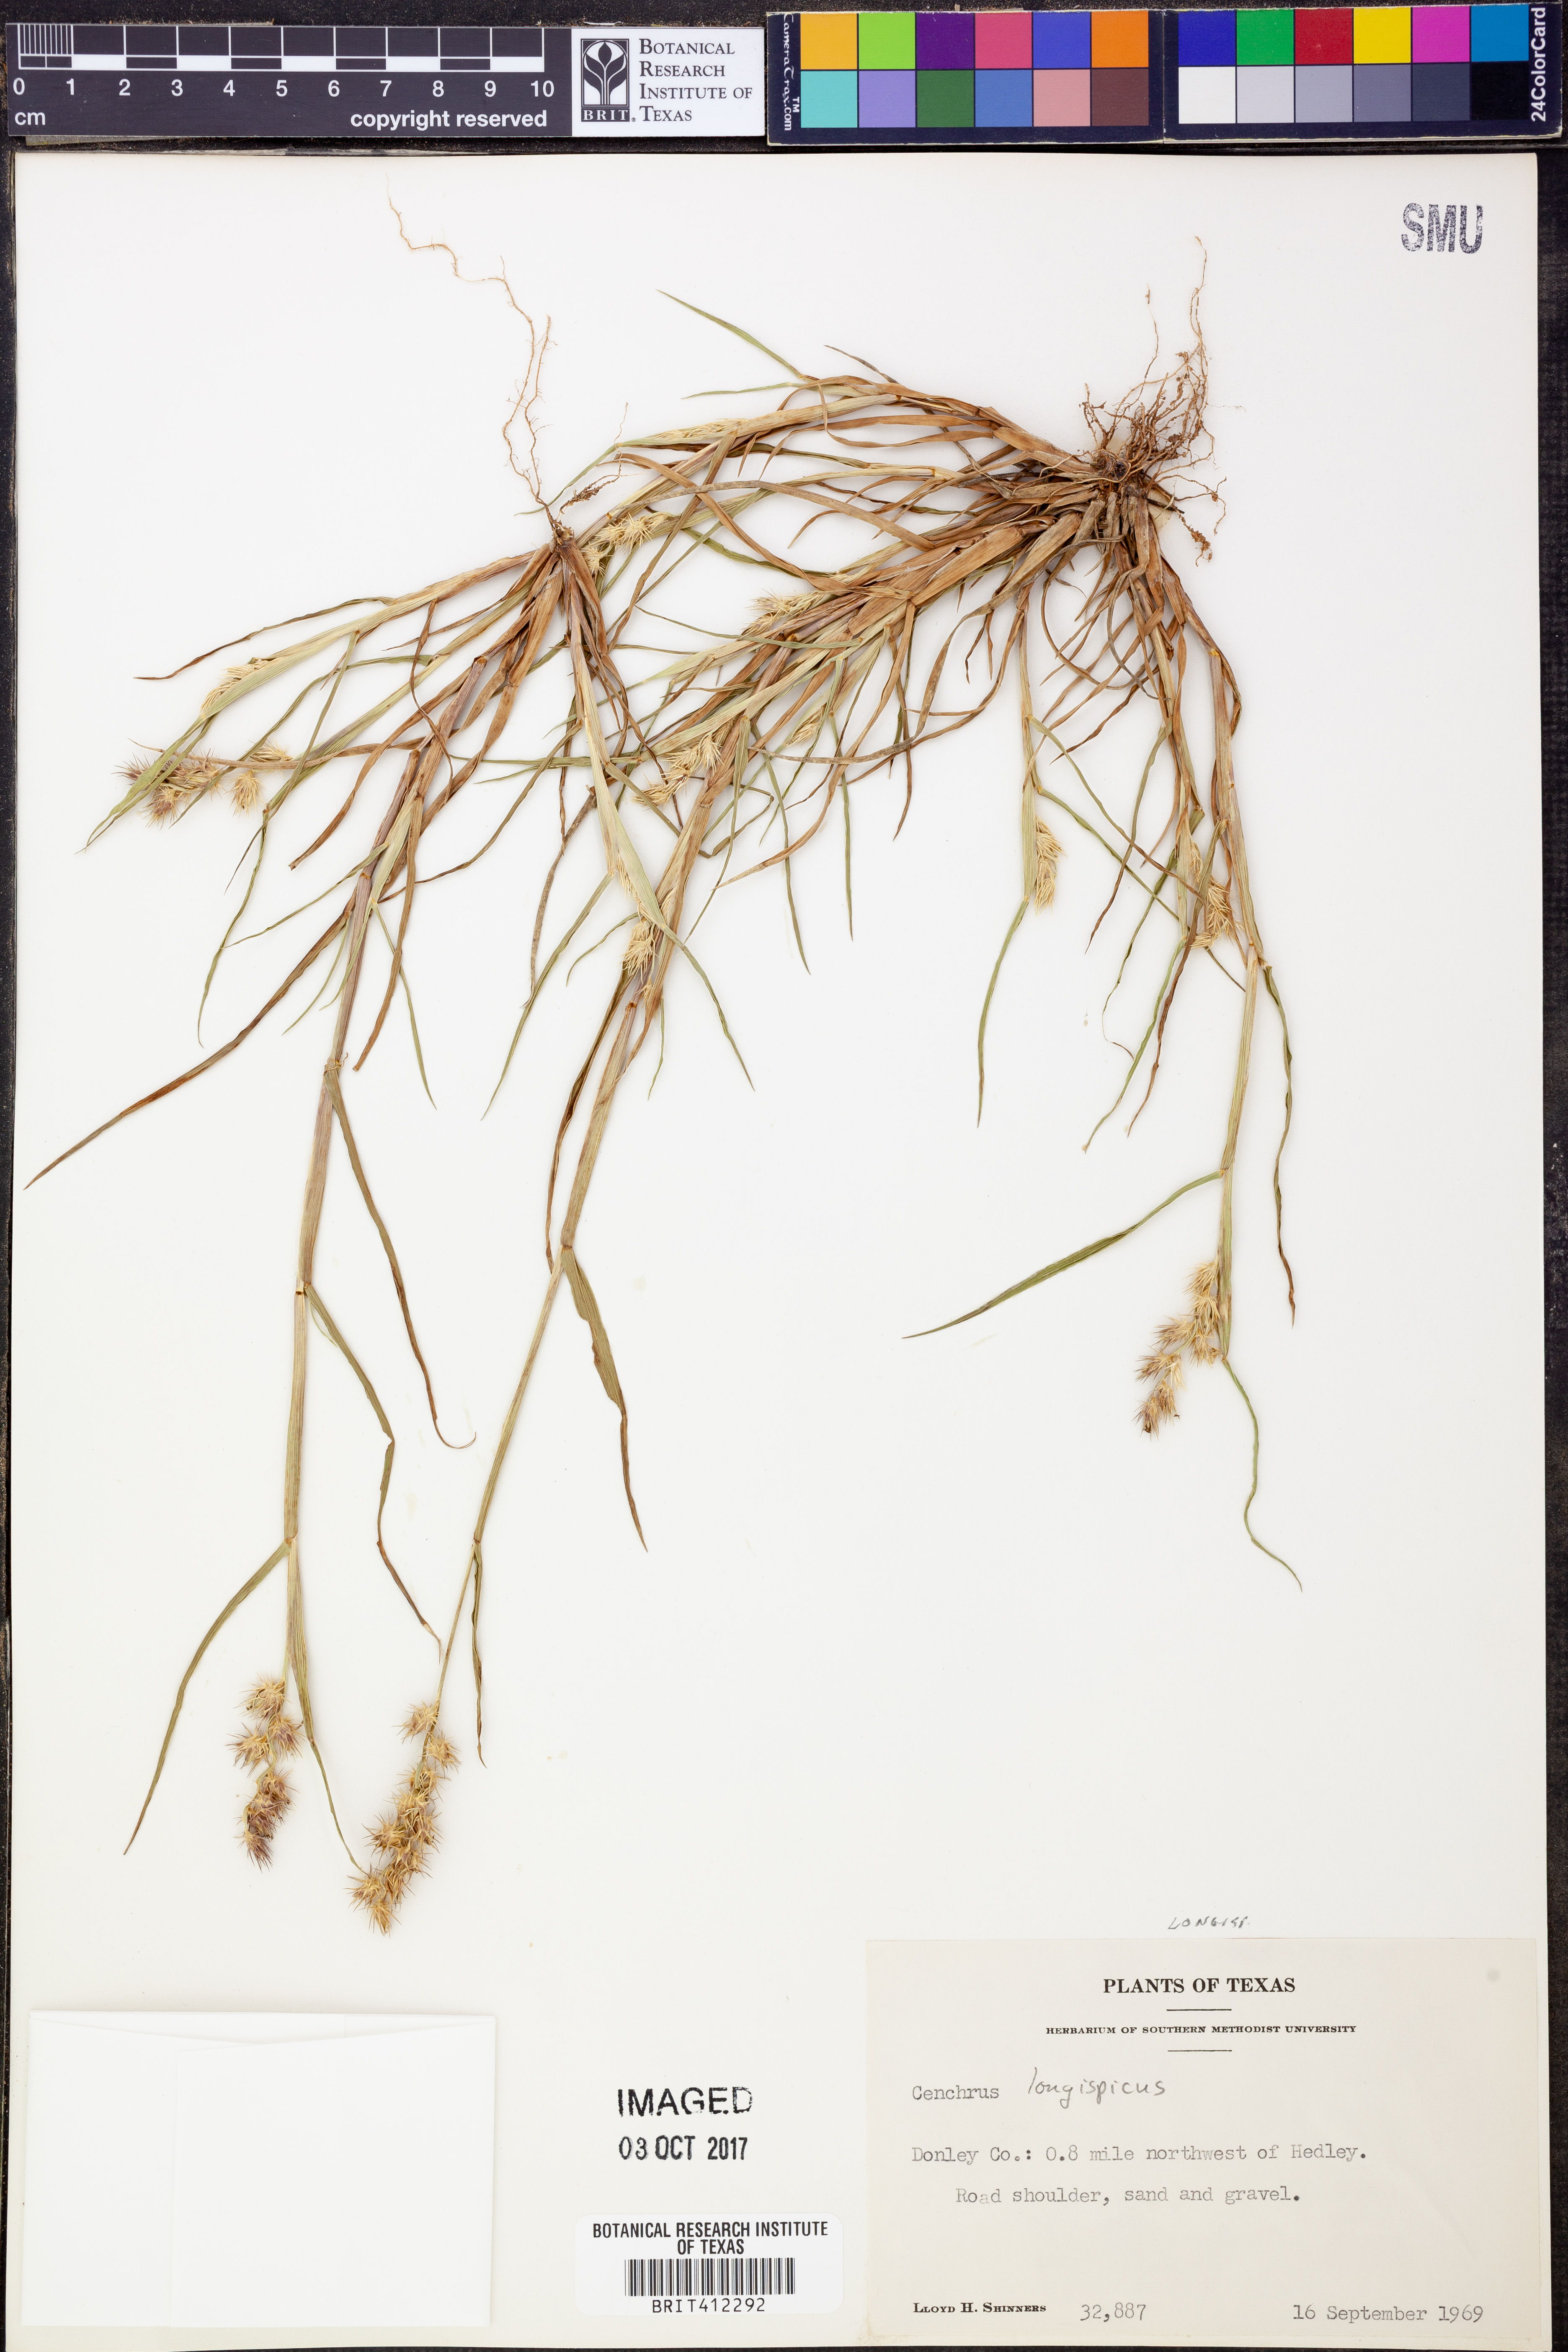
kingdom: Plantae
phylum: Tracheophyta
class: Liliopsida
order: Poales
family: Poaceae
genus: Cenchrus
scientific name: Cenchrus longispinus
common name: Mat sandbur
